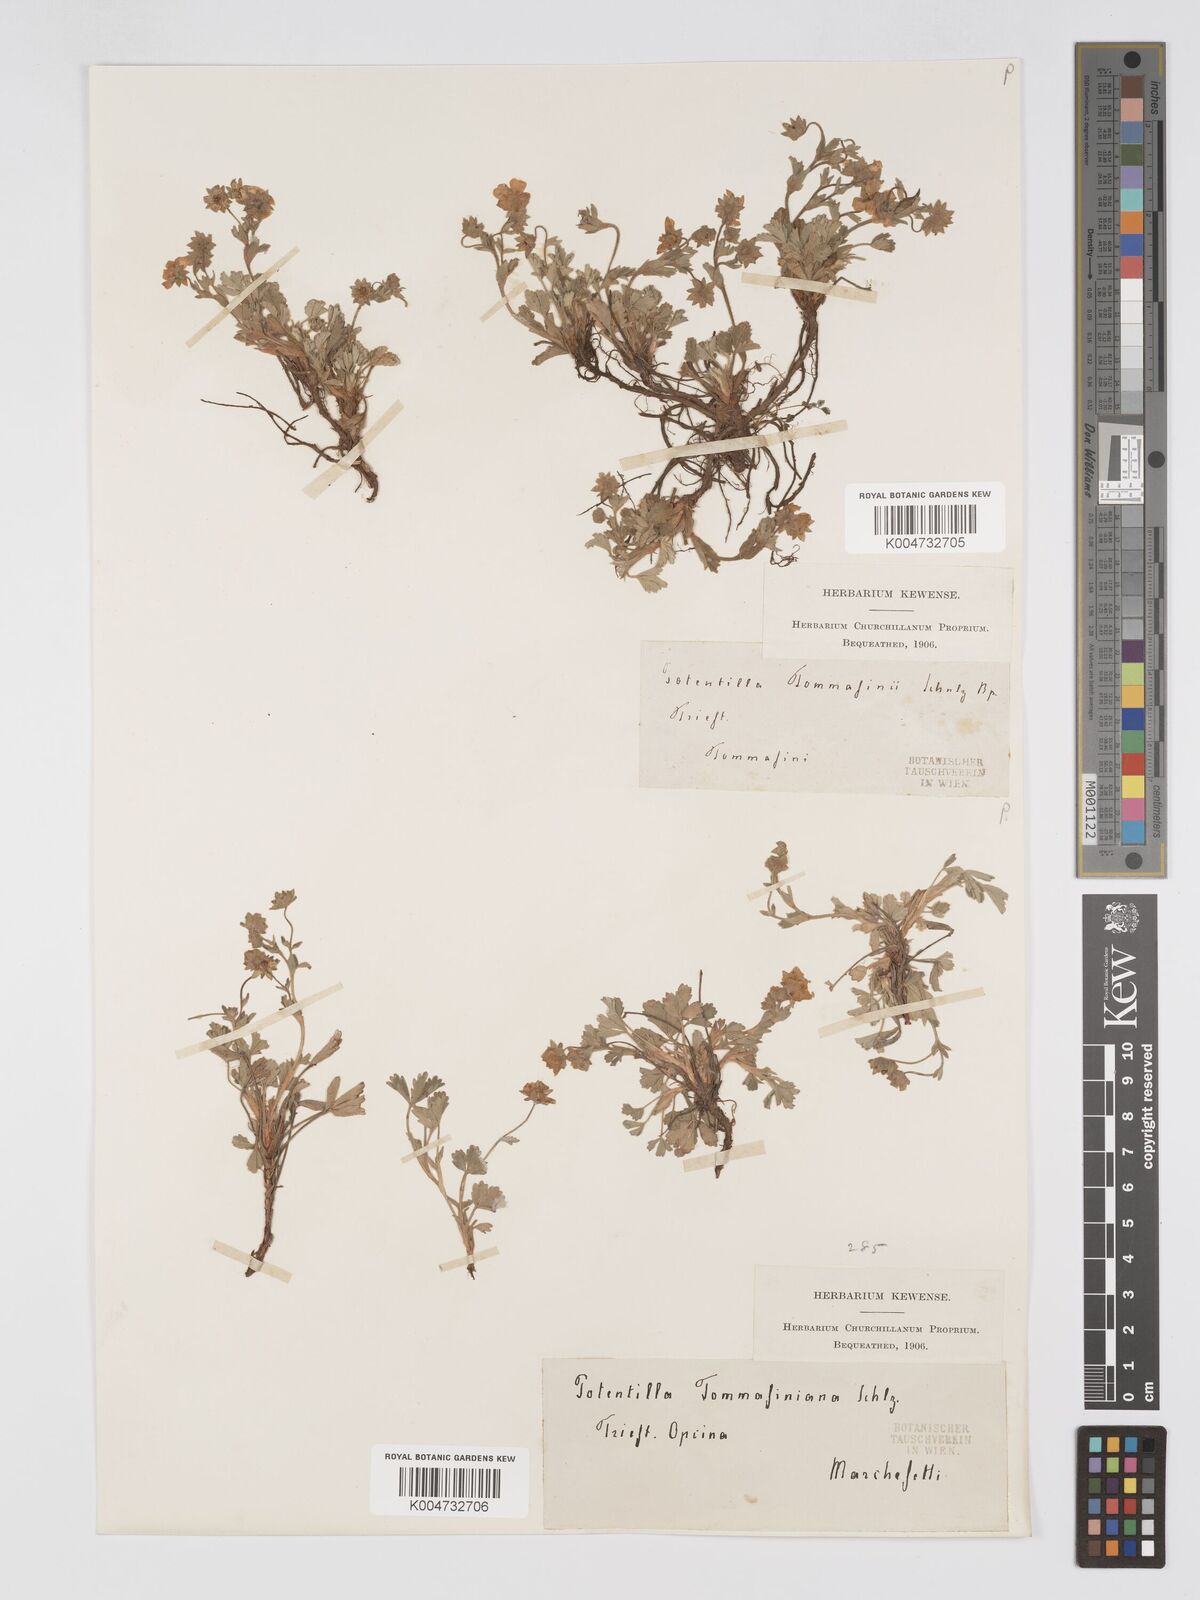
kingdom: Plantae
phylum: Tracheophyta
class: Magnoliopsida
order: Rosales
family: Rosaceae
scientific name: Rosaceae
